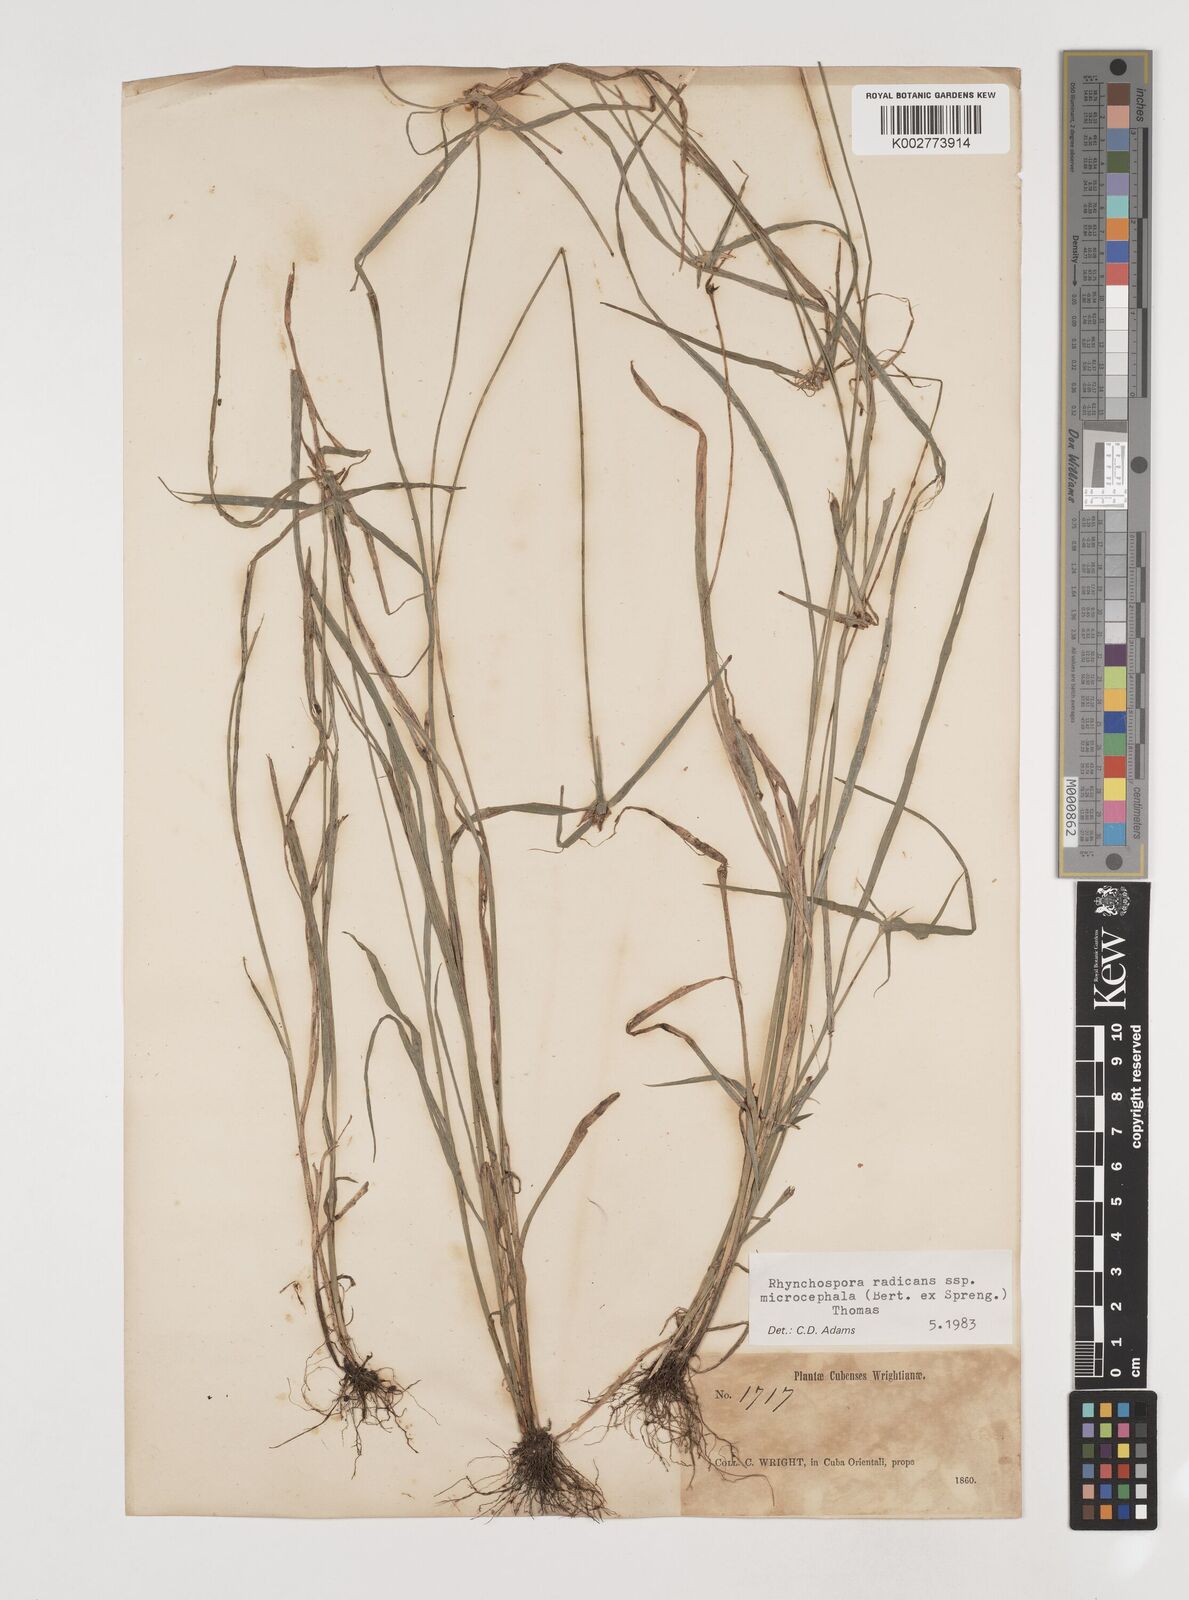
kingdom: Plantae
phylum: Tracheophyta
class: Liliopsida
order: Poales
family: Cyperaceae
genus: Rhynchospora
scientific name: Rhynchospora radicans
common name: Tropical whitetop
